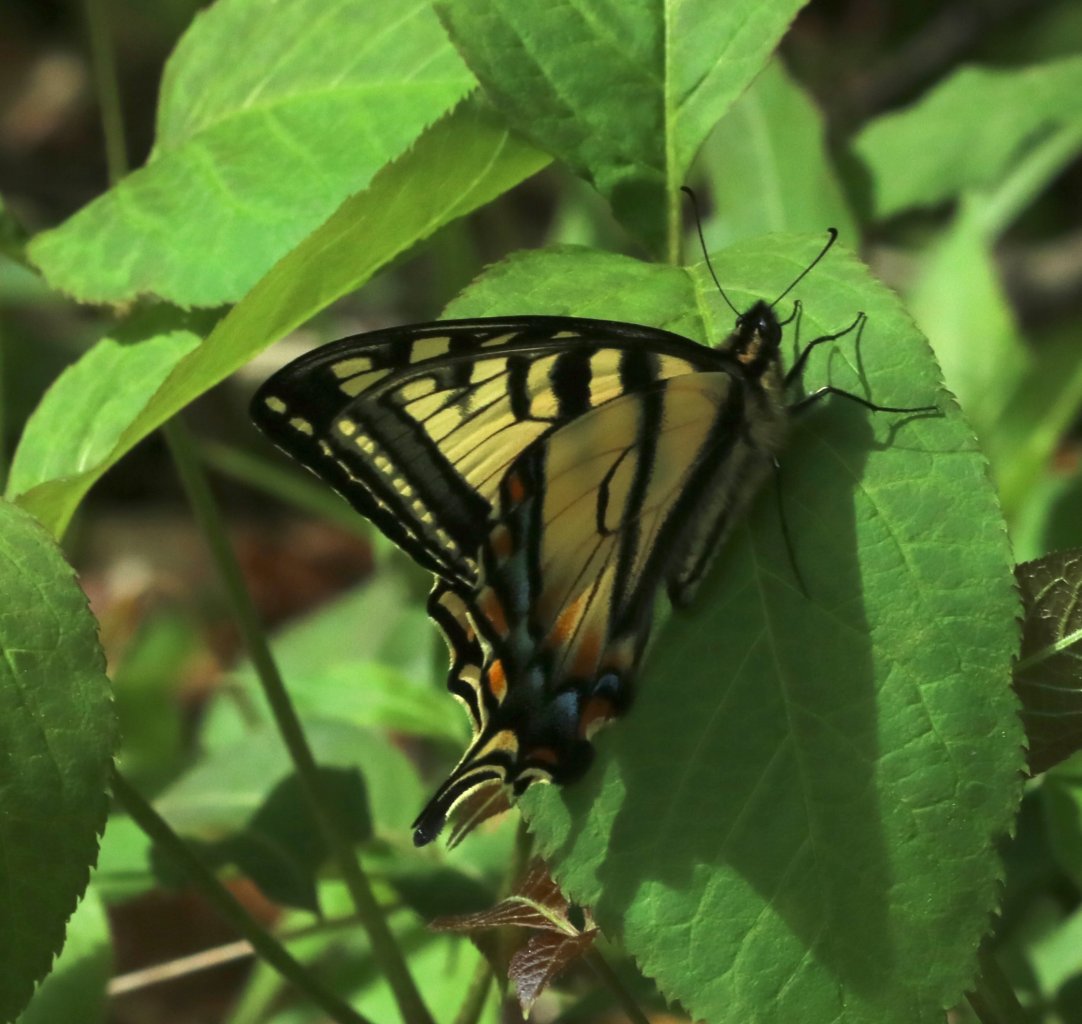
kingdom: Animalia
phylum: Arthropoda
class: Insecta
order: Lepidoptera
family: Papilionidae
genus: Pterourus
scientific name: Pterourus canadensis
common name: Canadian Tiger Swallowtail
